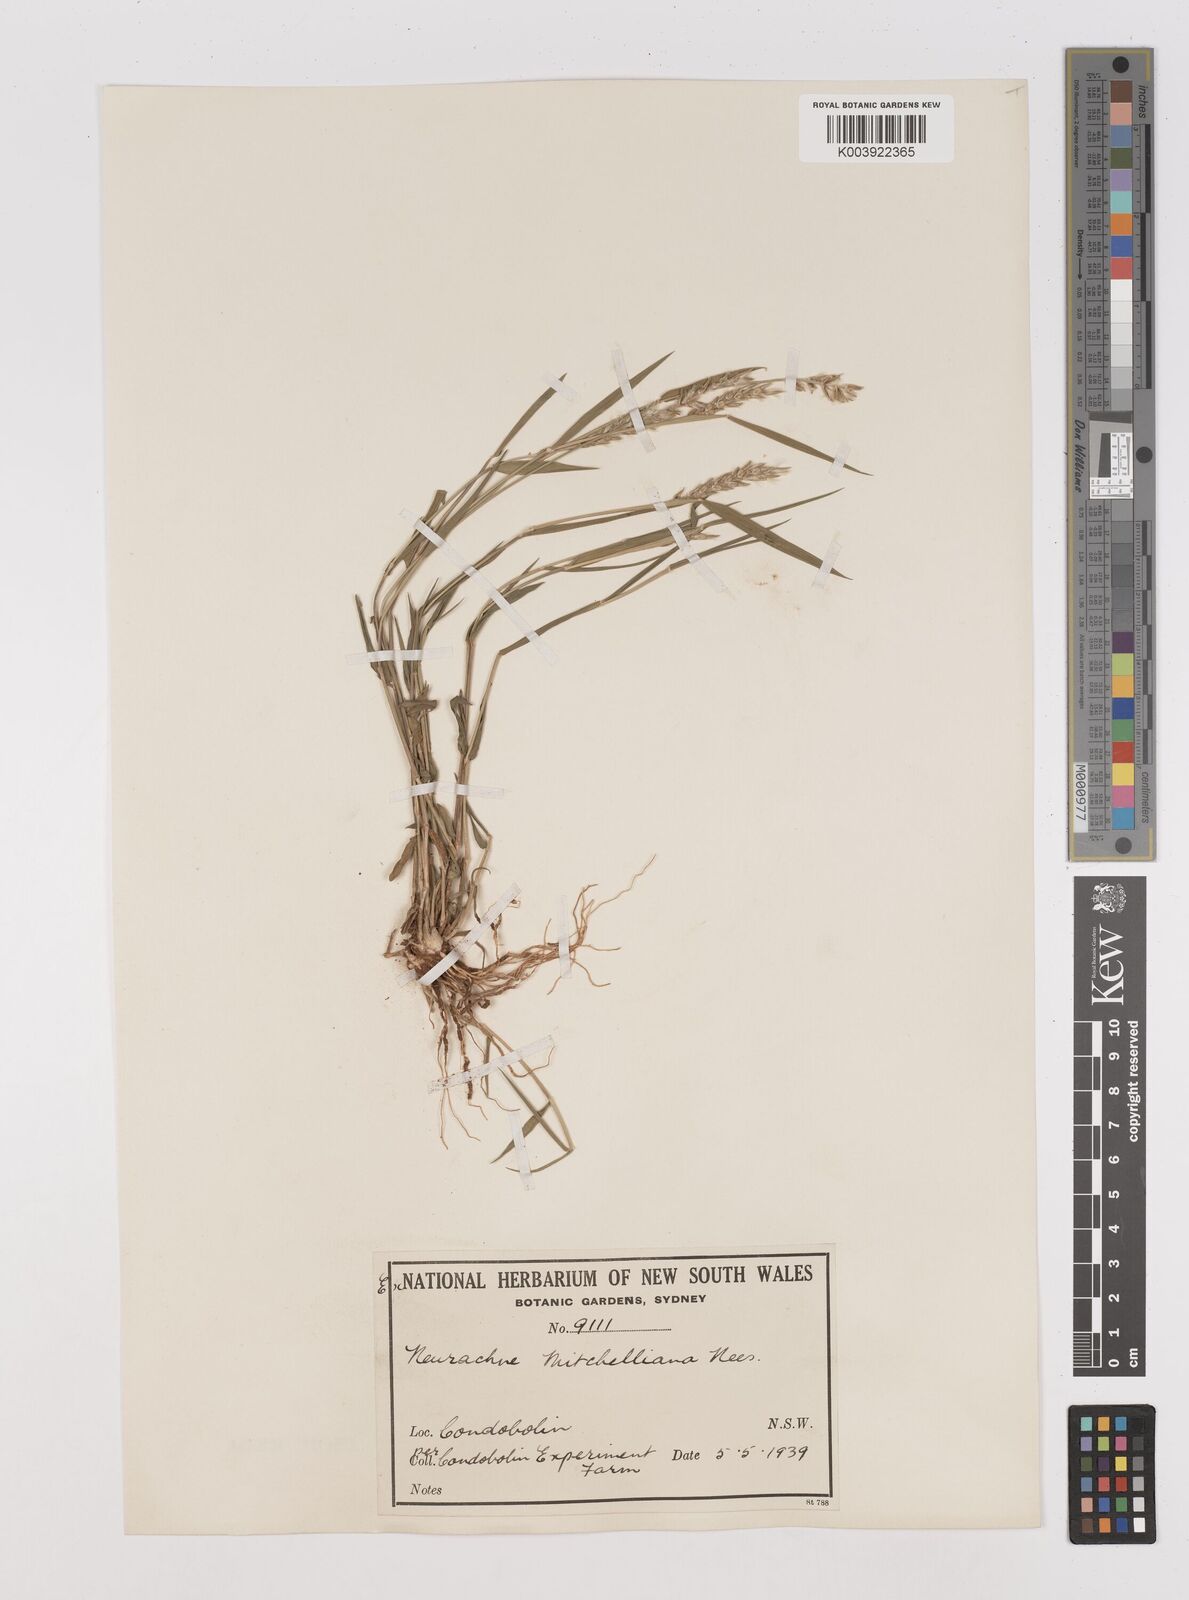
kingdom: Plantae
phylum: Tracheophyta
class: Liliopsida
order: Poales
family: Poaceae
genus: Thyridolepis
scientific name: Thyridolepis mitchelliana
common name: Rock tassel grass
